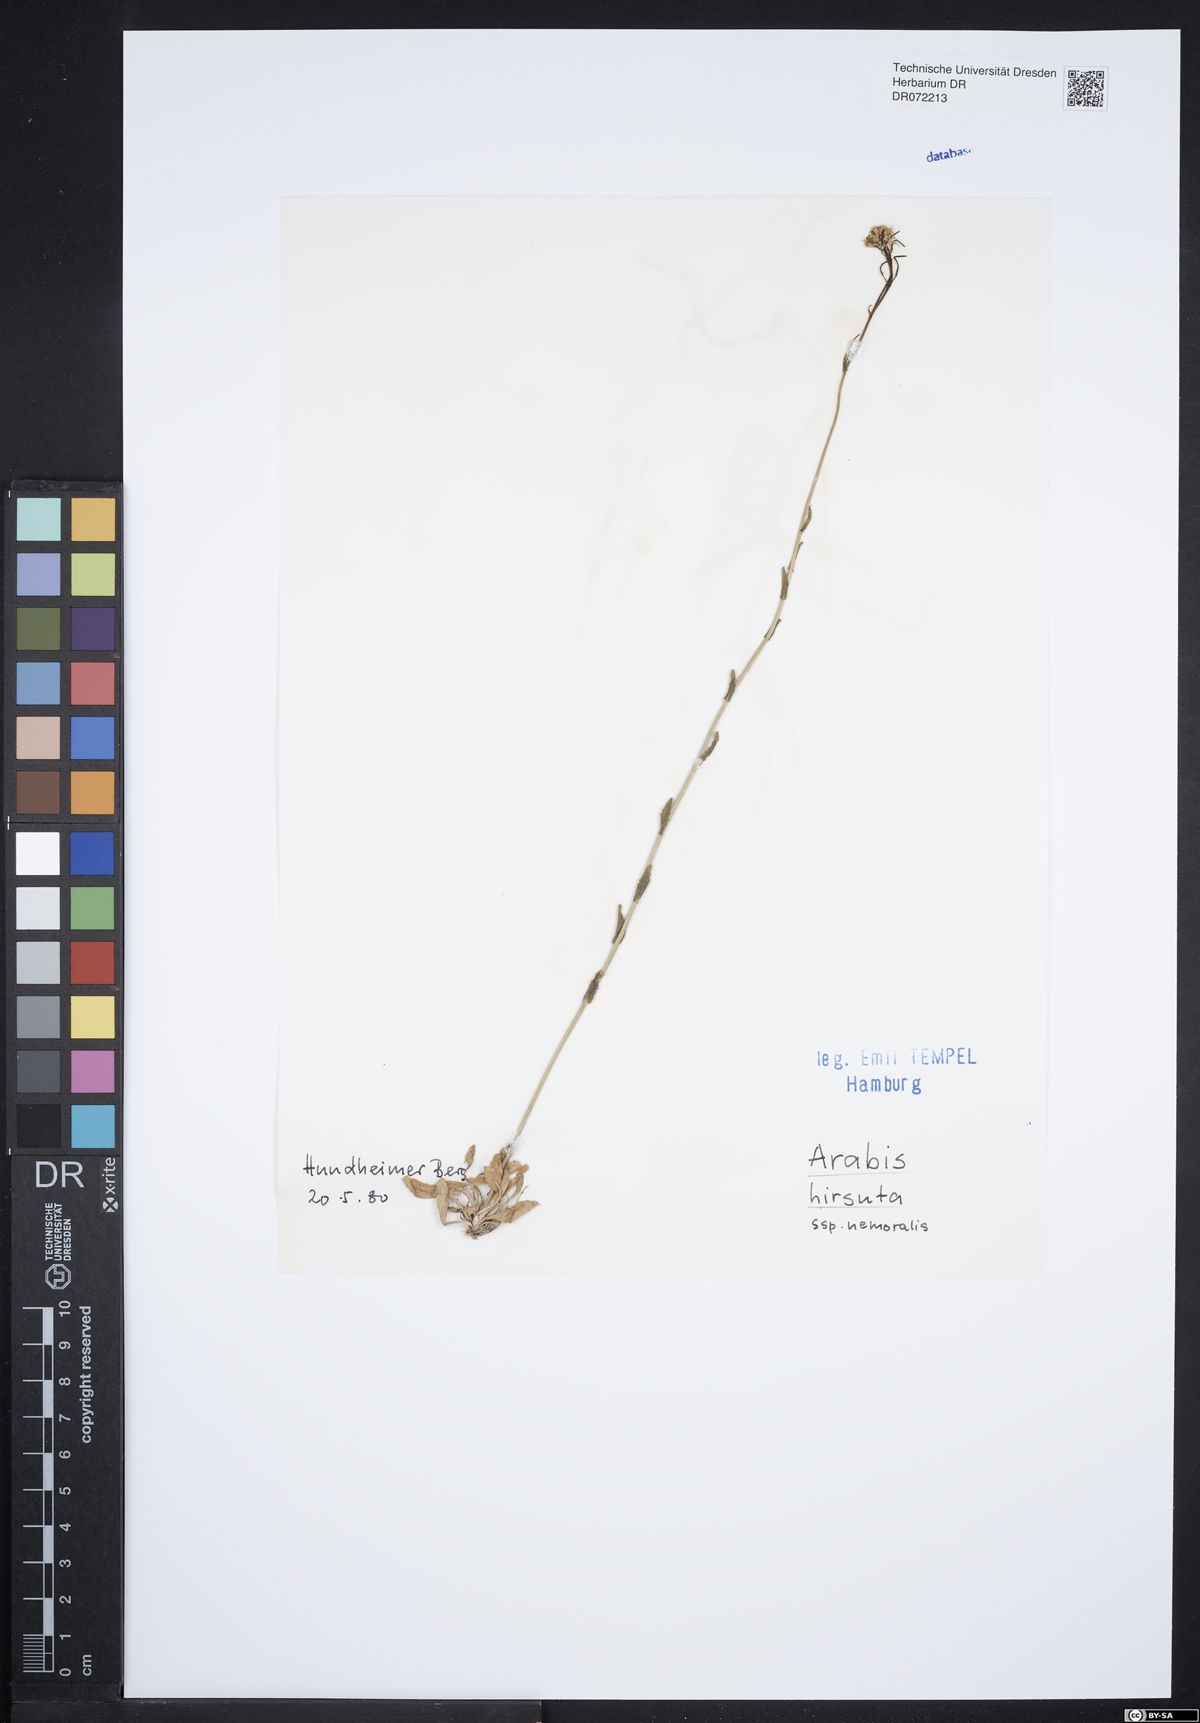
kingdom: Plantae
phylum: Tracheophyta
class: Magnoliopsida
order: Brassicales
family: Brassicaceae
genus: Arabis
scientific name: Arabis hirsuta
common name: Hairy rock-cress
